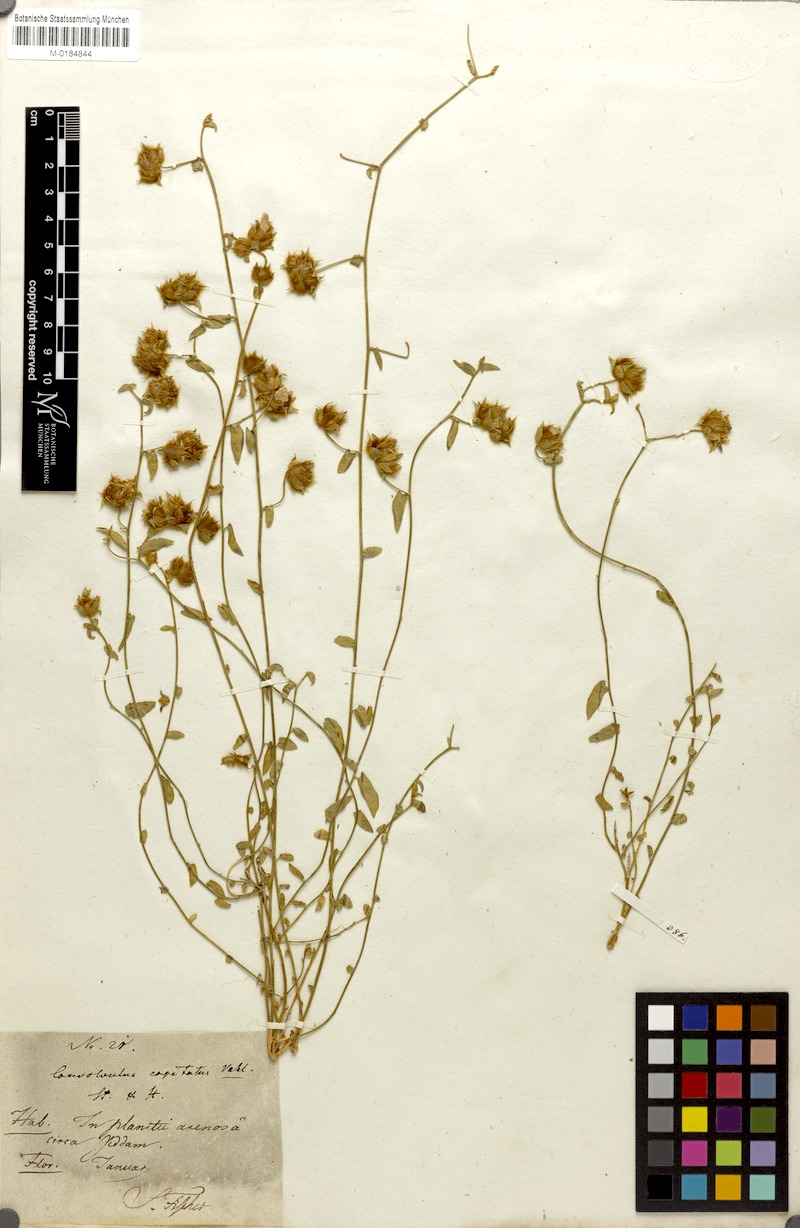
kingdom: Plantae
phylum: Tracheophyta
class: Magnoliopsida
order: Solanales
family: Convolvulaceae
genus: Convolvulus
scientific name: Convolvulus glomeratus
